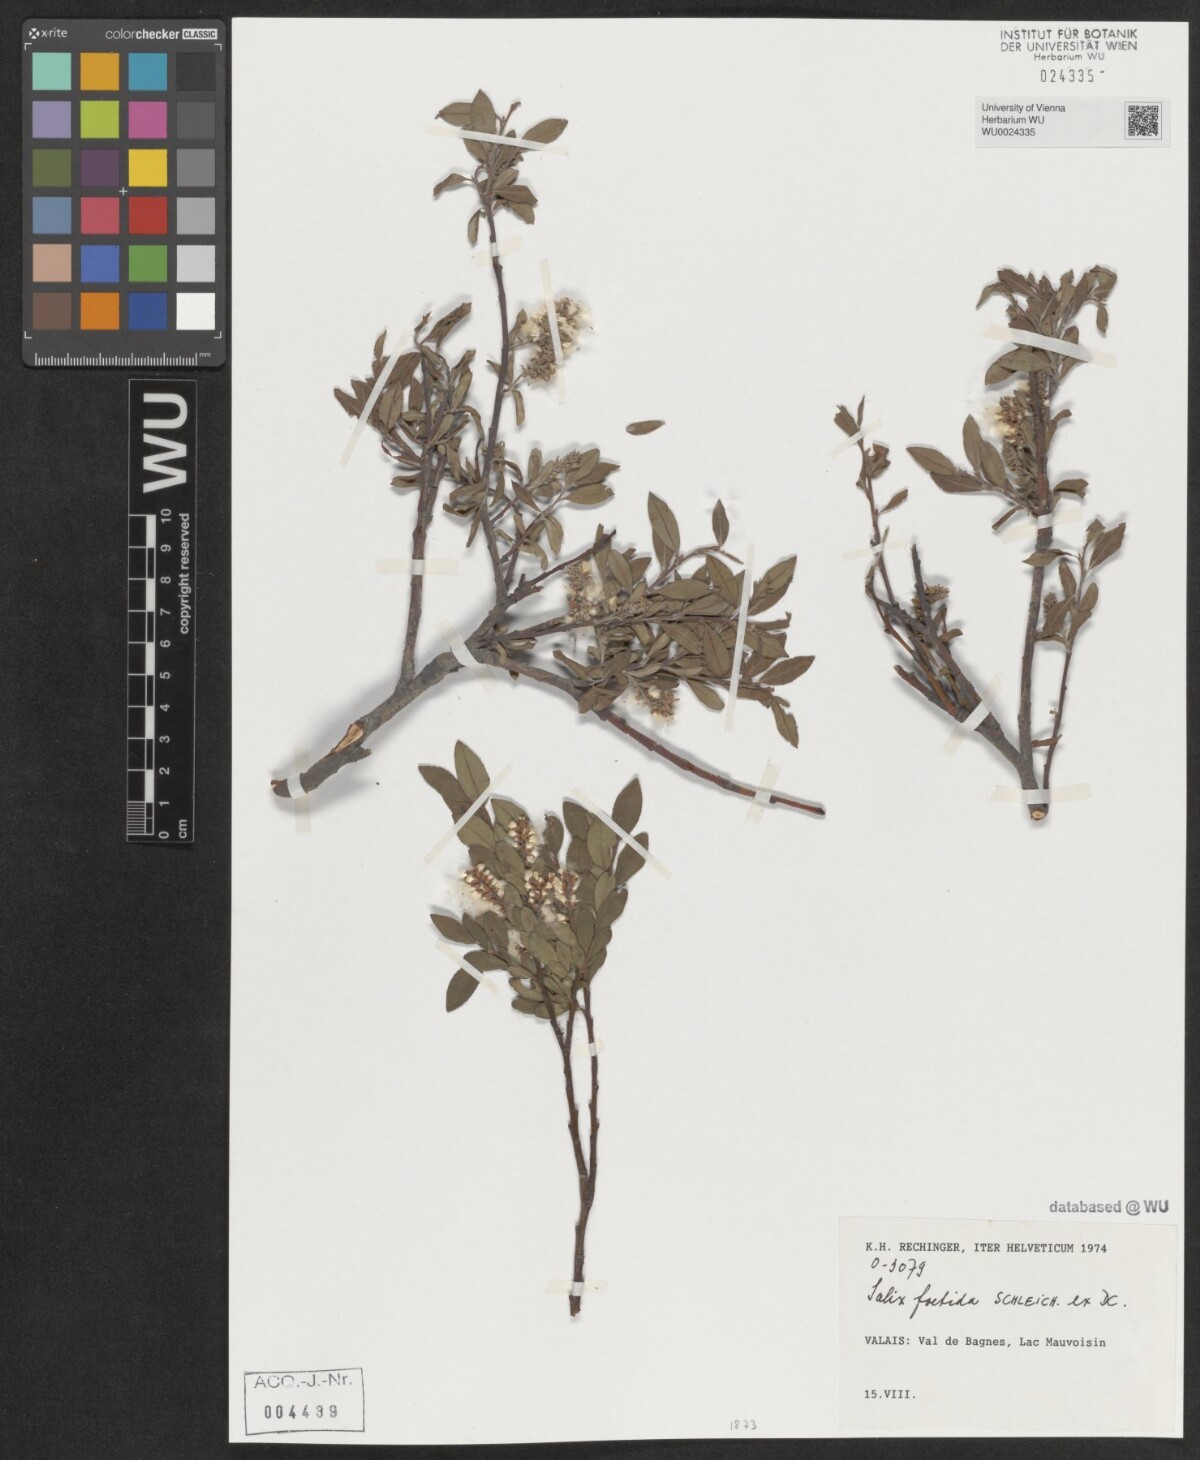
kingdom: Plantae
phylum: Tracheophyta
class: Magnoliopsida
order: Malpighiales
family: Salicaceae
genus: Salix
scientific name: Salix foetida
